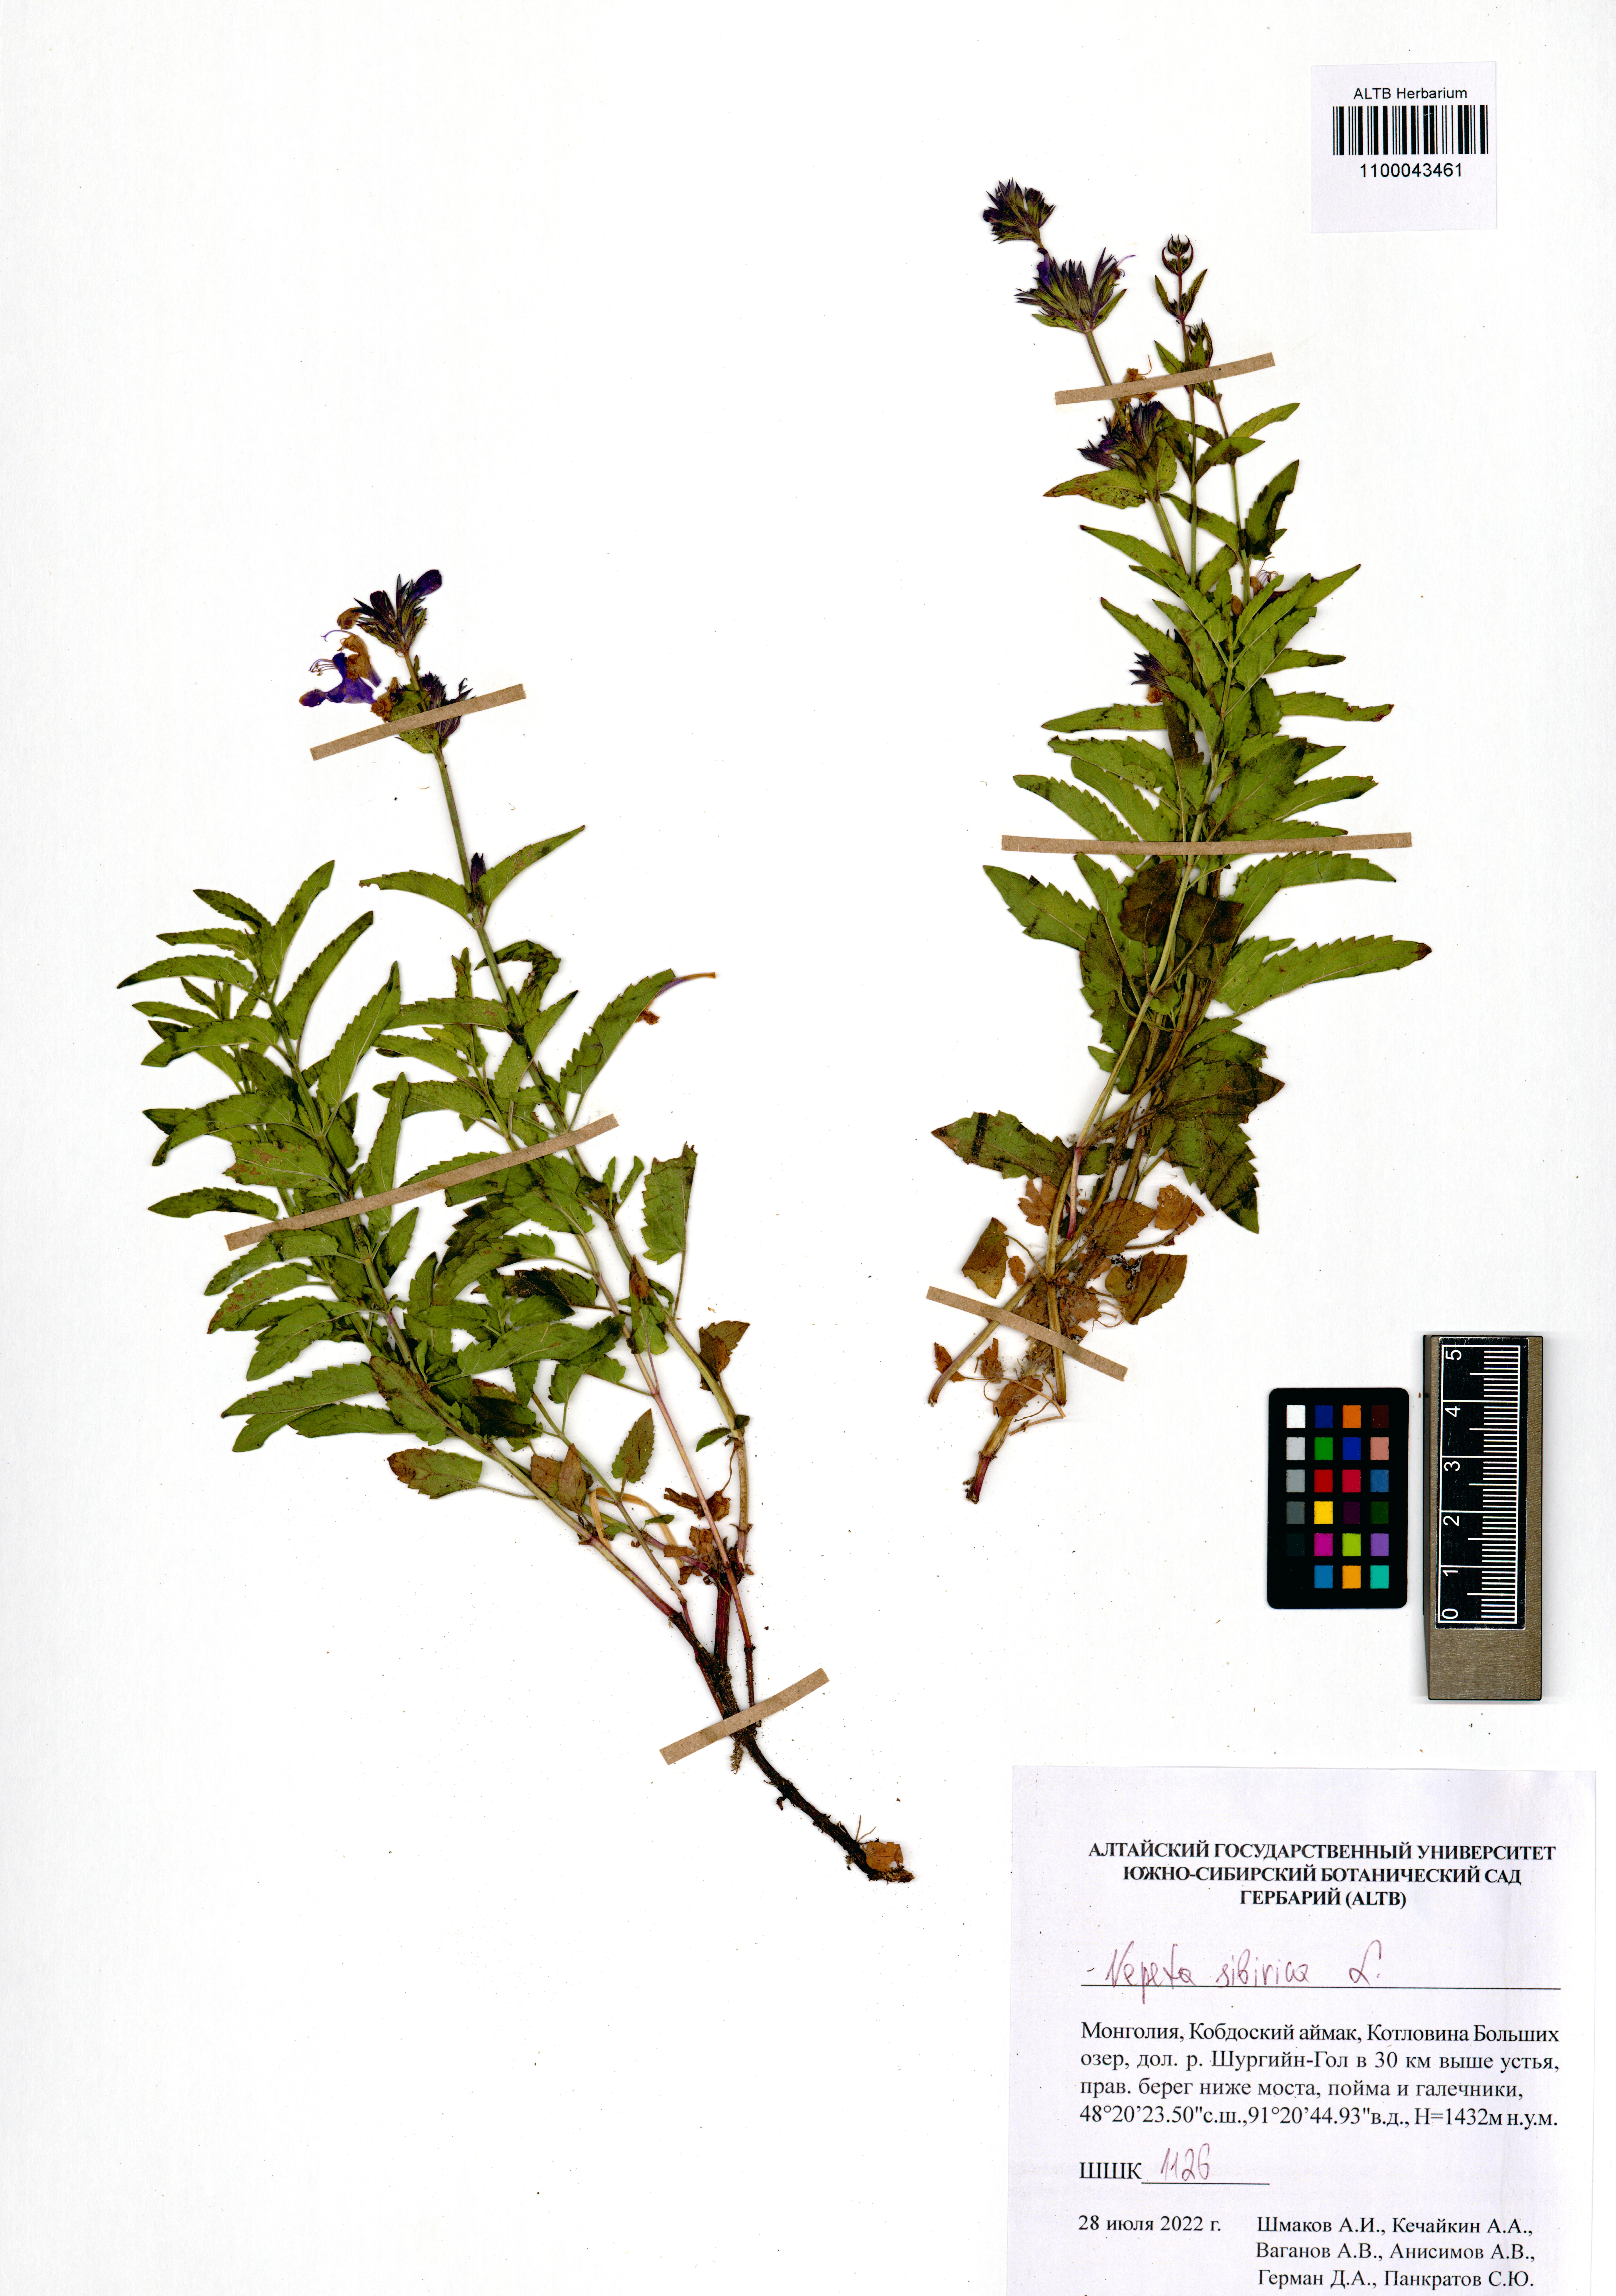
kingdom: Plantae
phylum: Tracheophyta
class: Magnoliopsida
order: Lamiales
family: Lamiaceae
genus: Nepeta
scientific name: Nepeta sibirica
